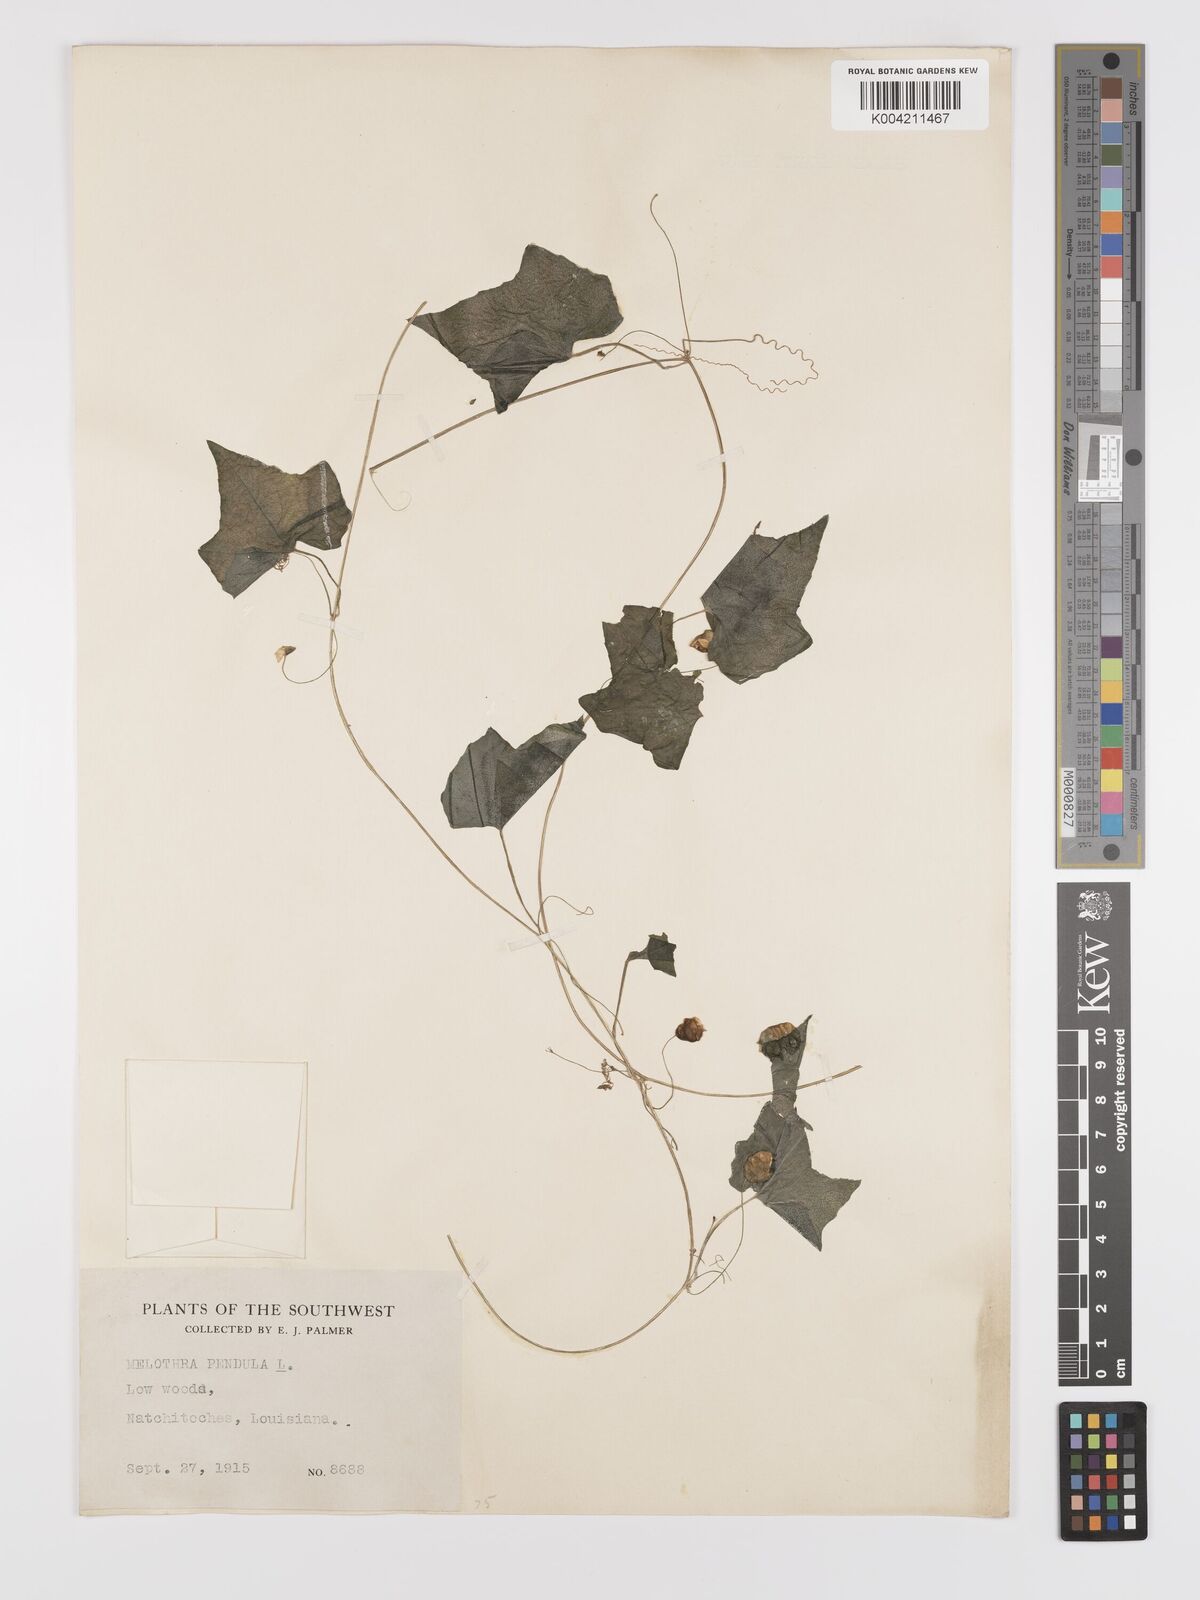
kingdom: Plantae
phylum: Tracheophyta
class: Magnoliopsida
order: Cucurbitales
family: Cucurbitaceae
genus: Melothria
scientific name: Melothria pendula
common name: Creeping-cucumber
